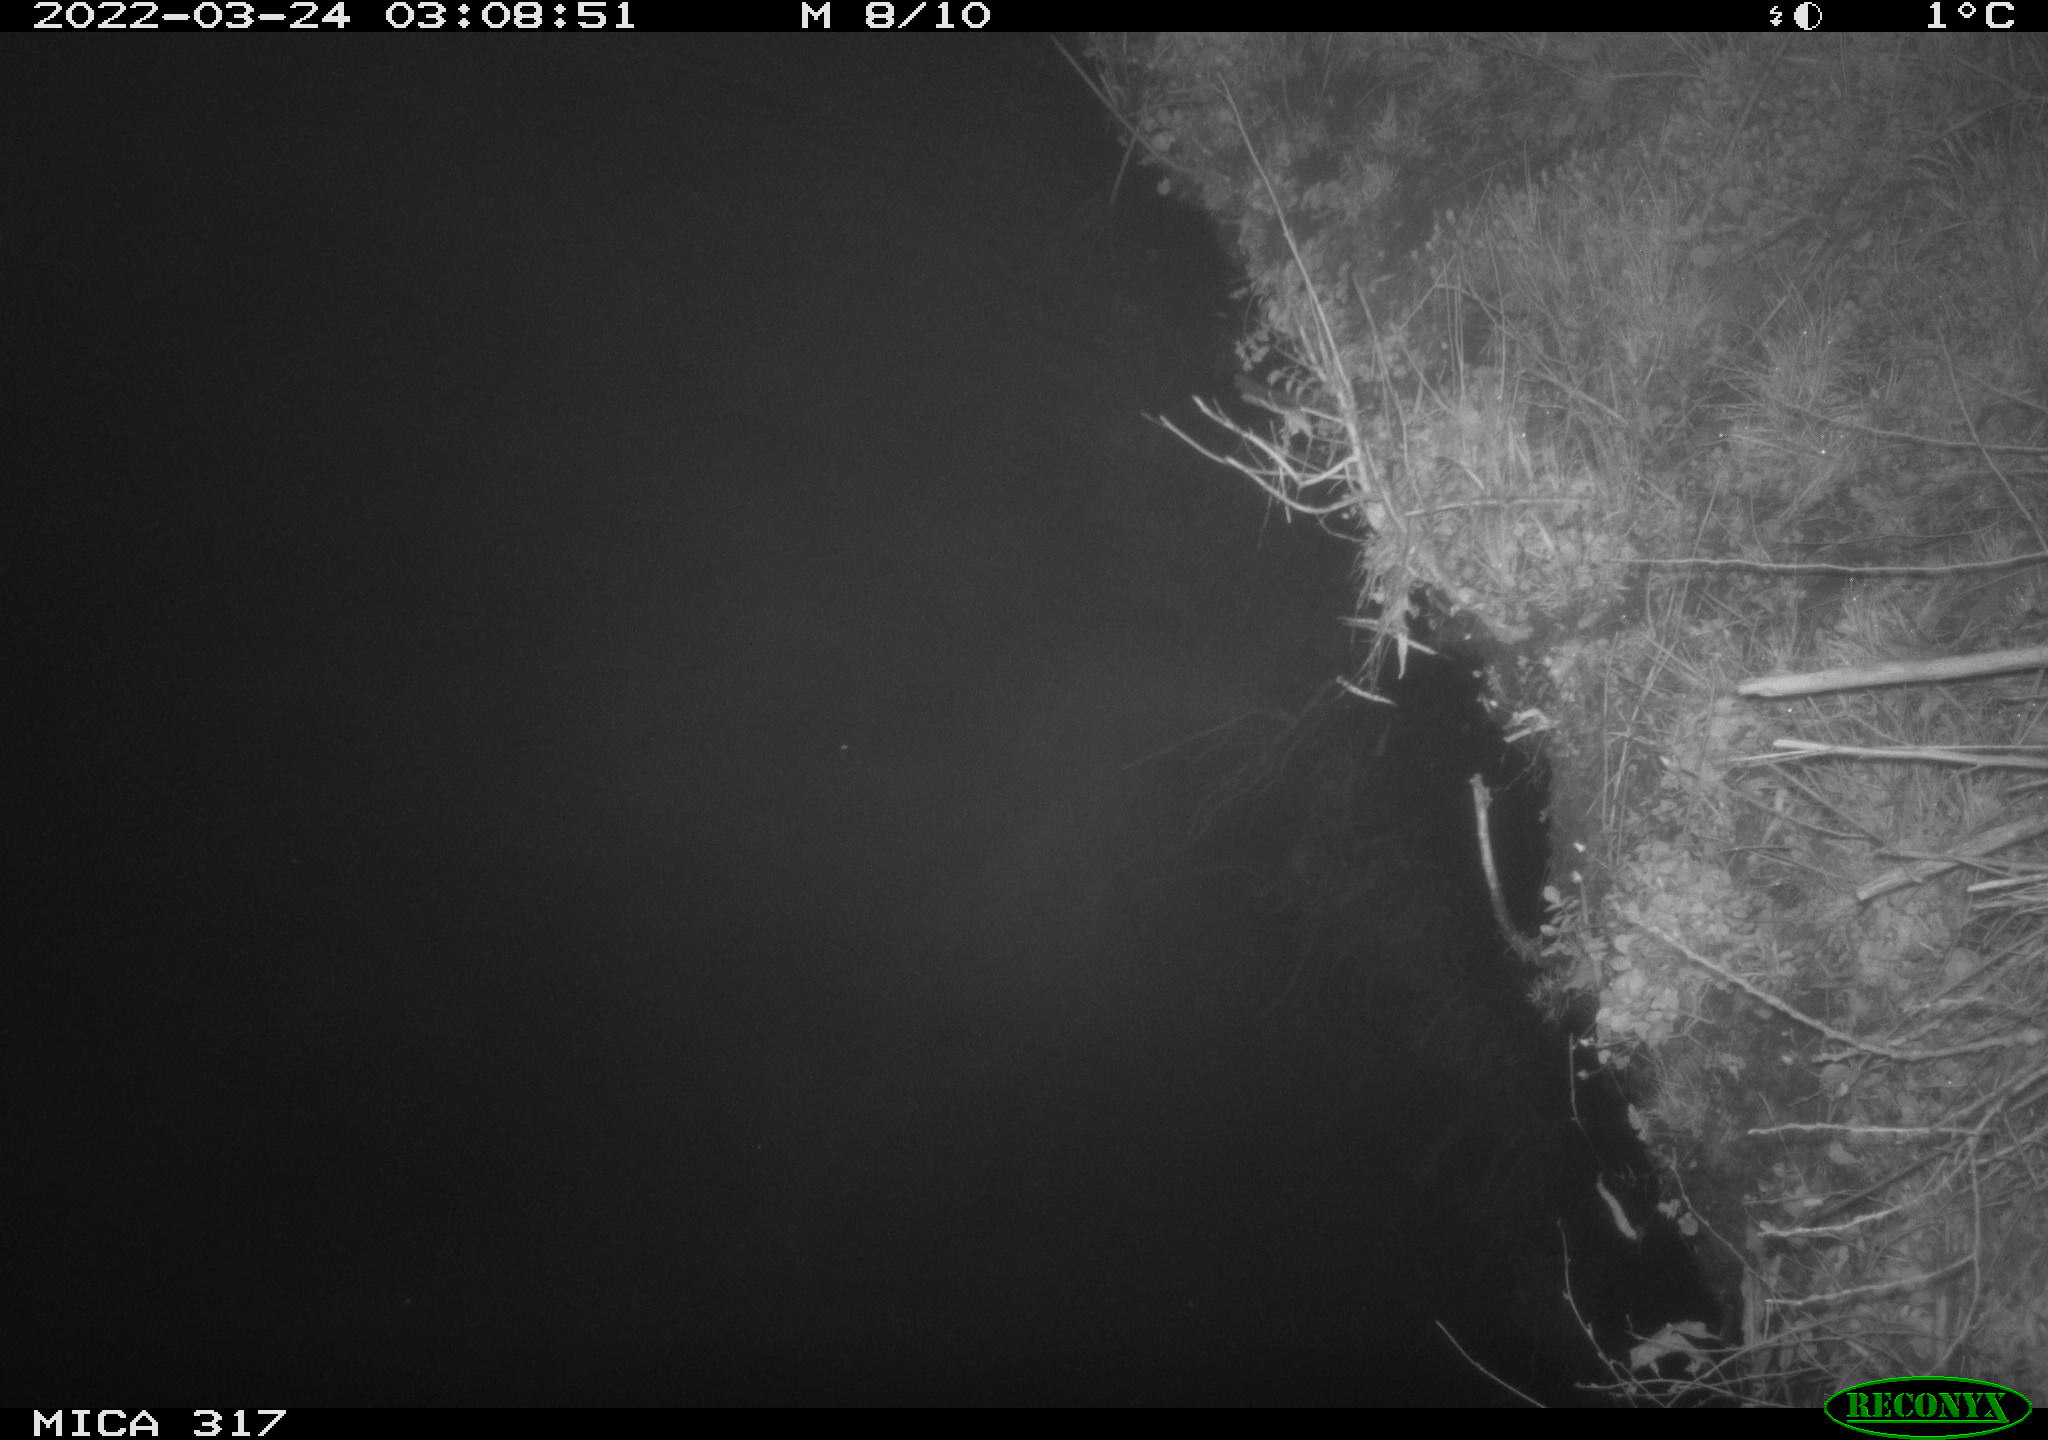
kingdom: Animalia
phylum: Chordata
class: Aves
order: Anseriformes
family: Anatidae
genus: Anas
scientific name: Anas platyrhynchos
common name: Mallard
